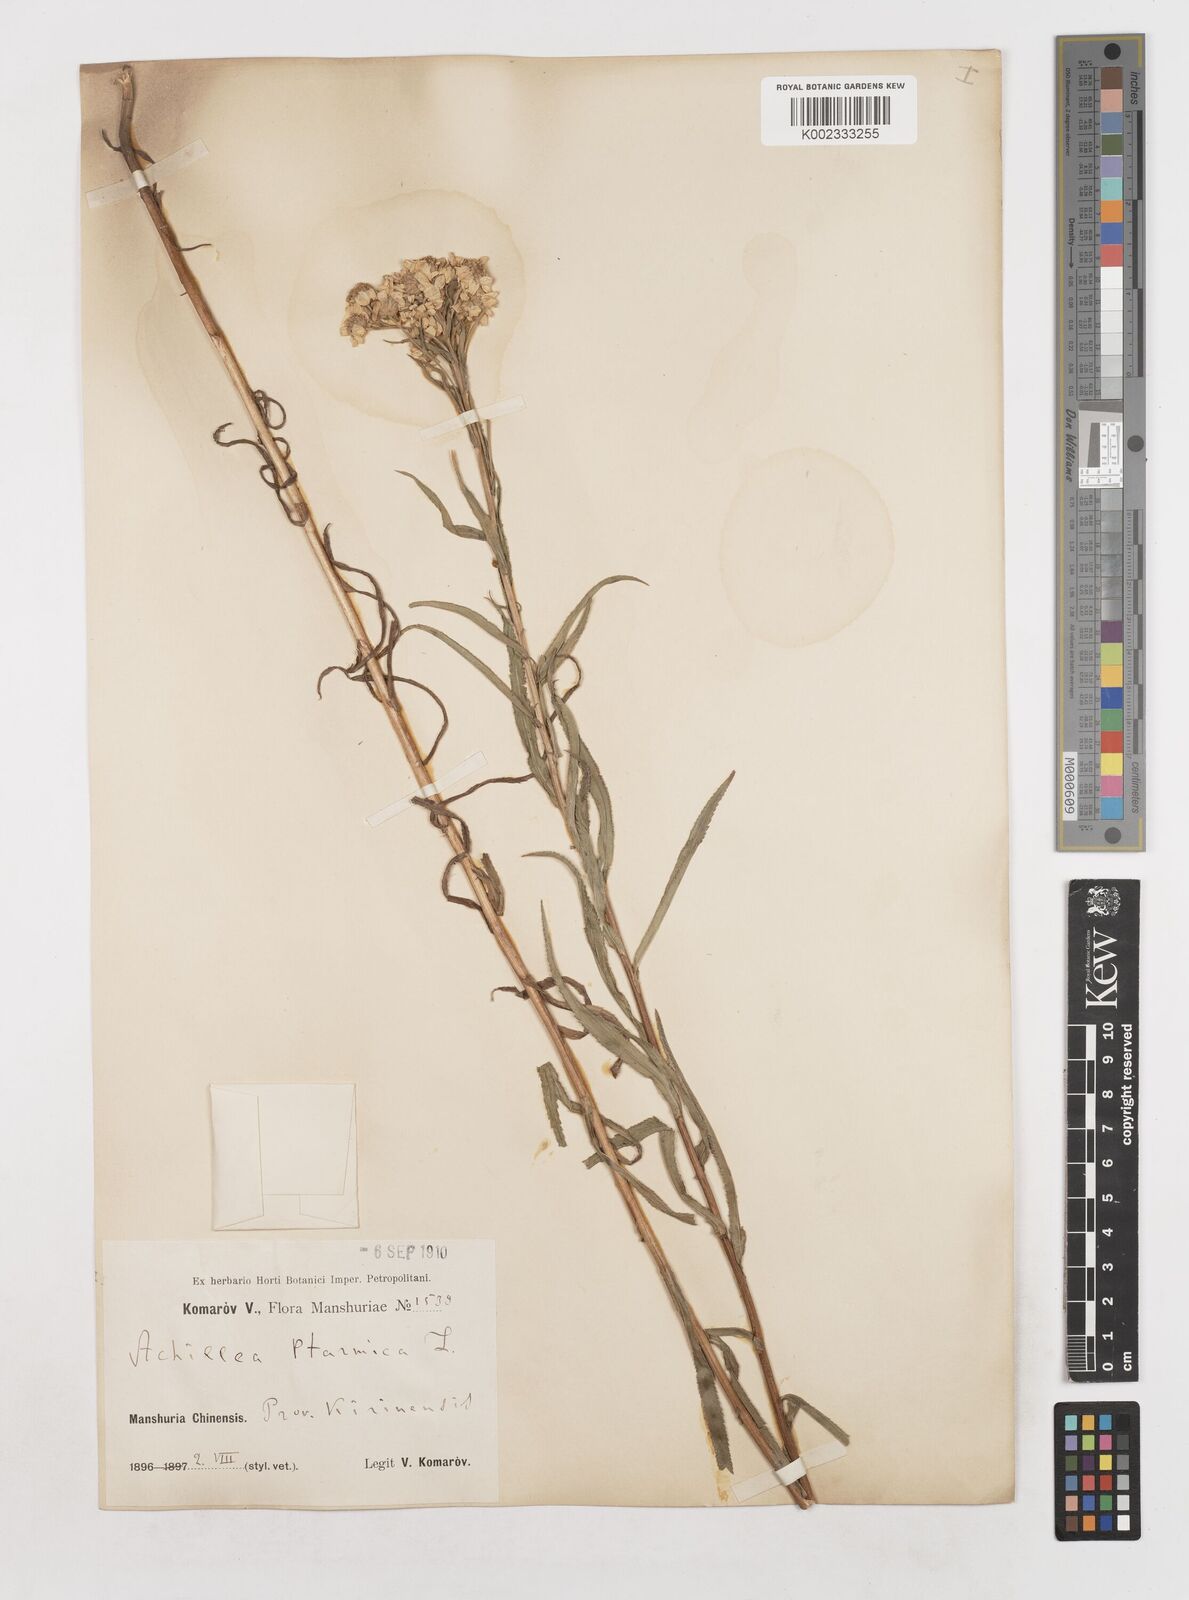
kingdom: Plantae
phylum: Tracheophyta
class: Magnoliopsida
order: Asterales
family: Asteraceae
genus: Achillea
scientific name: Achillea ptarmica
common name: Sneezeweed
